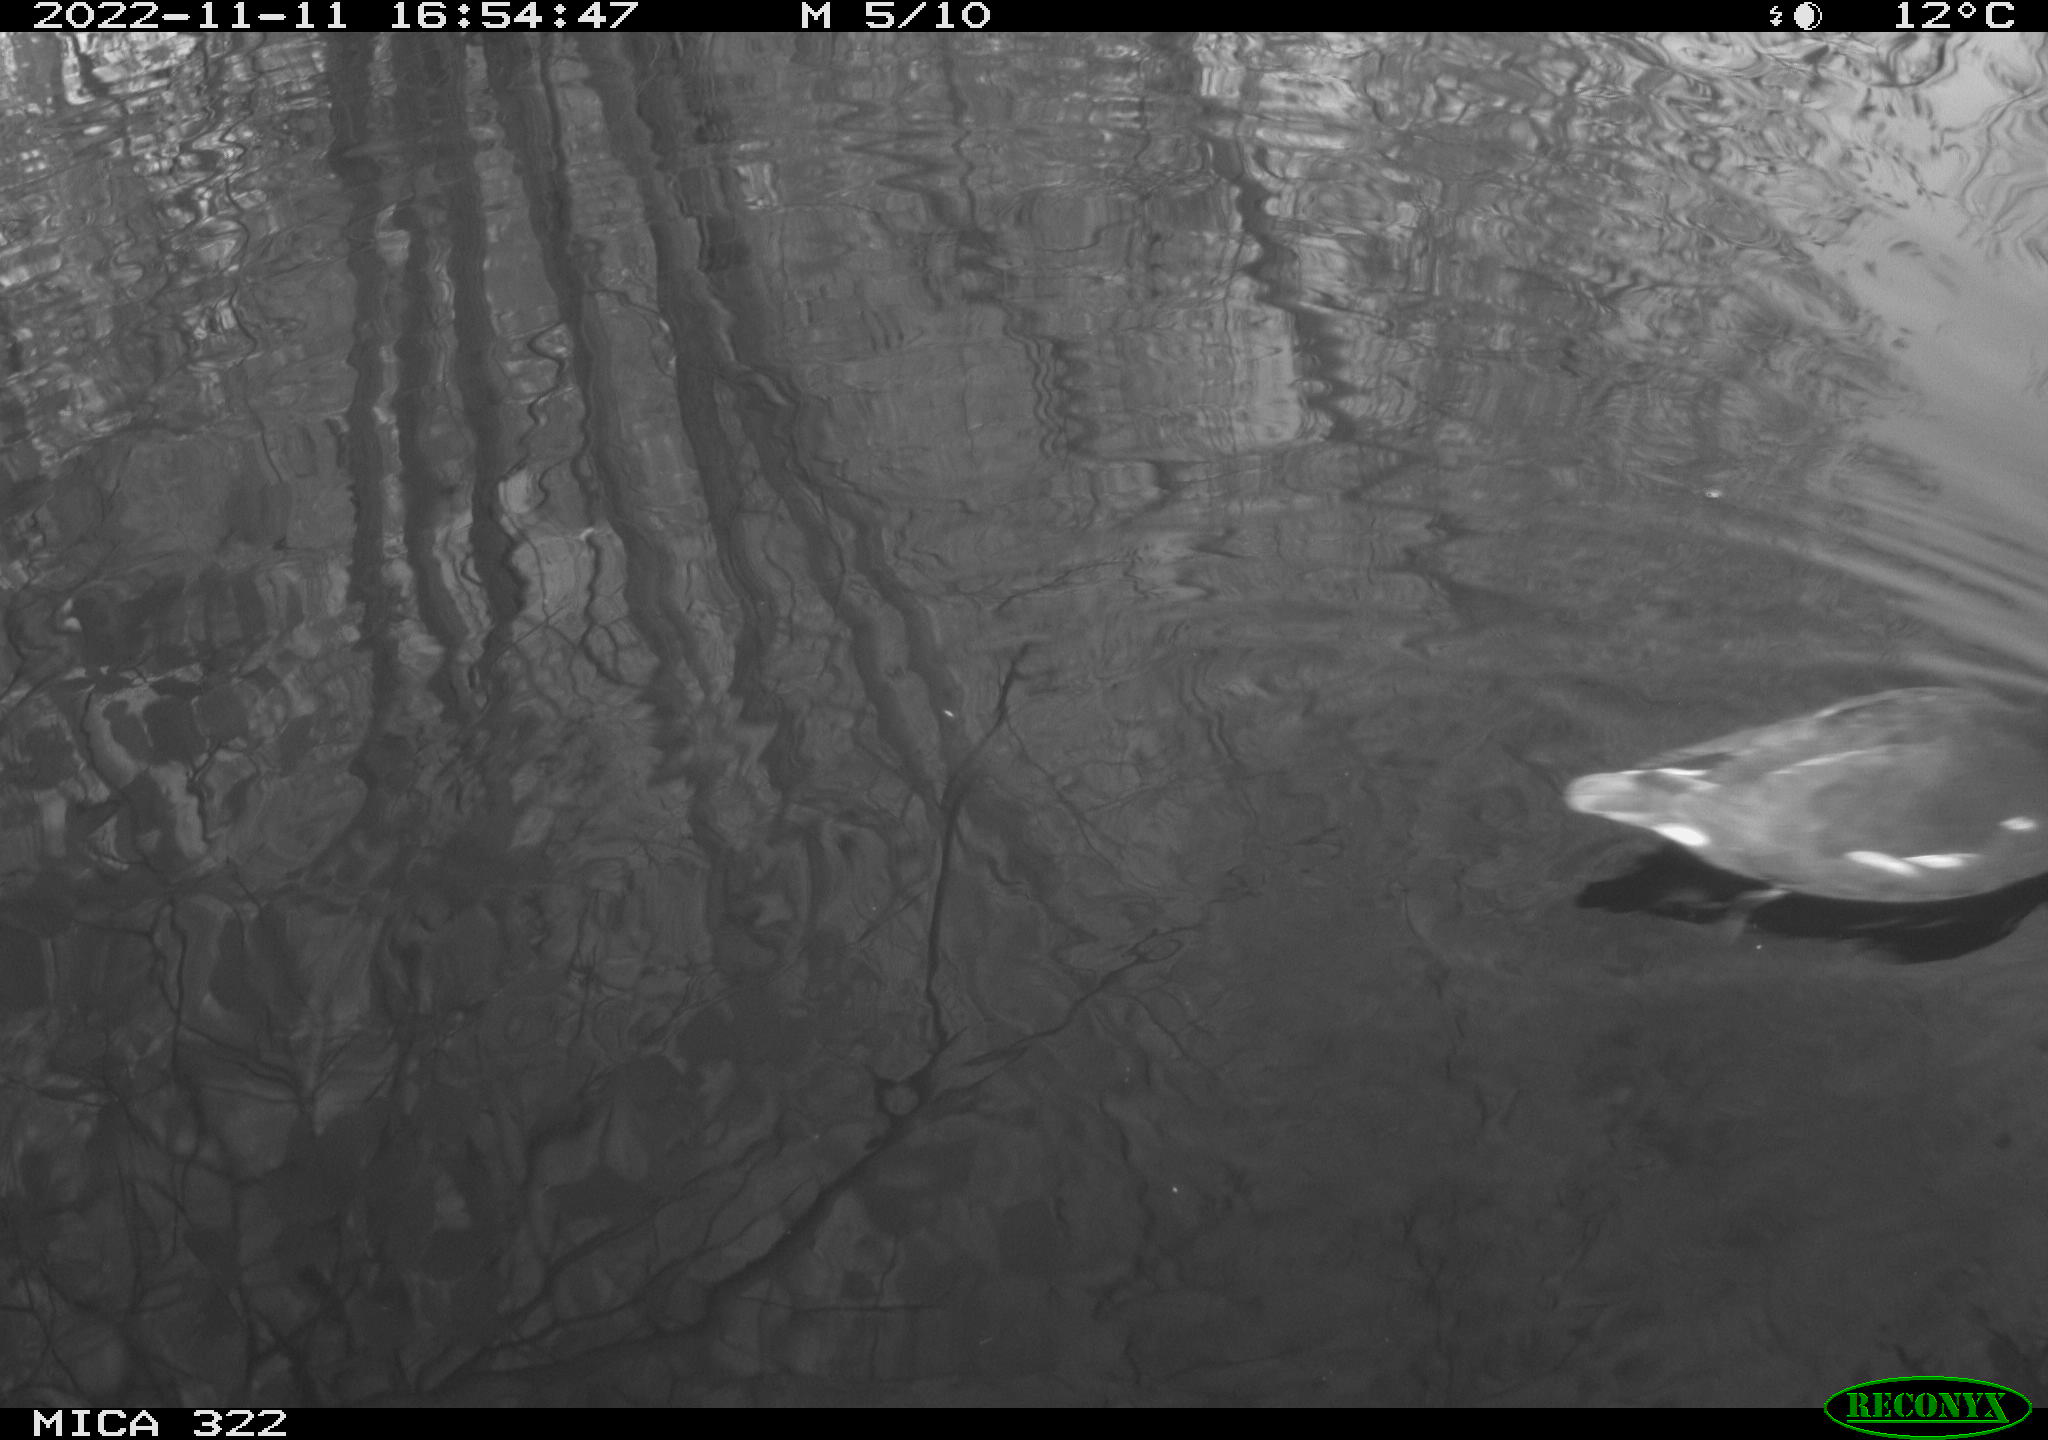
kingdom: Animalia
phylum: Chordata
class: Aves
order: Gruiformes
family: Rallidae
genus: Gallinula
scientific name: Gallinula chloropus
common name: Common moorhen
